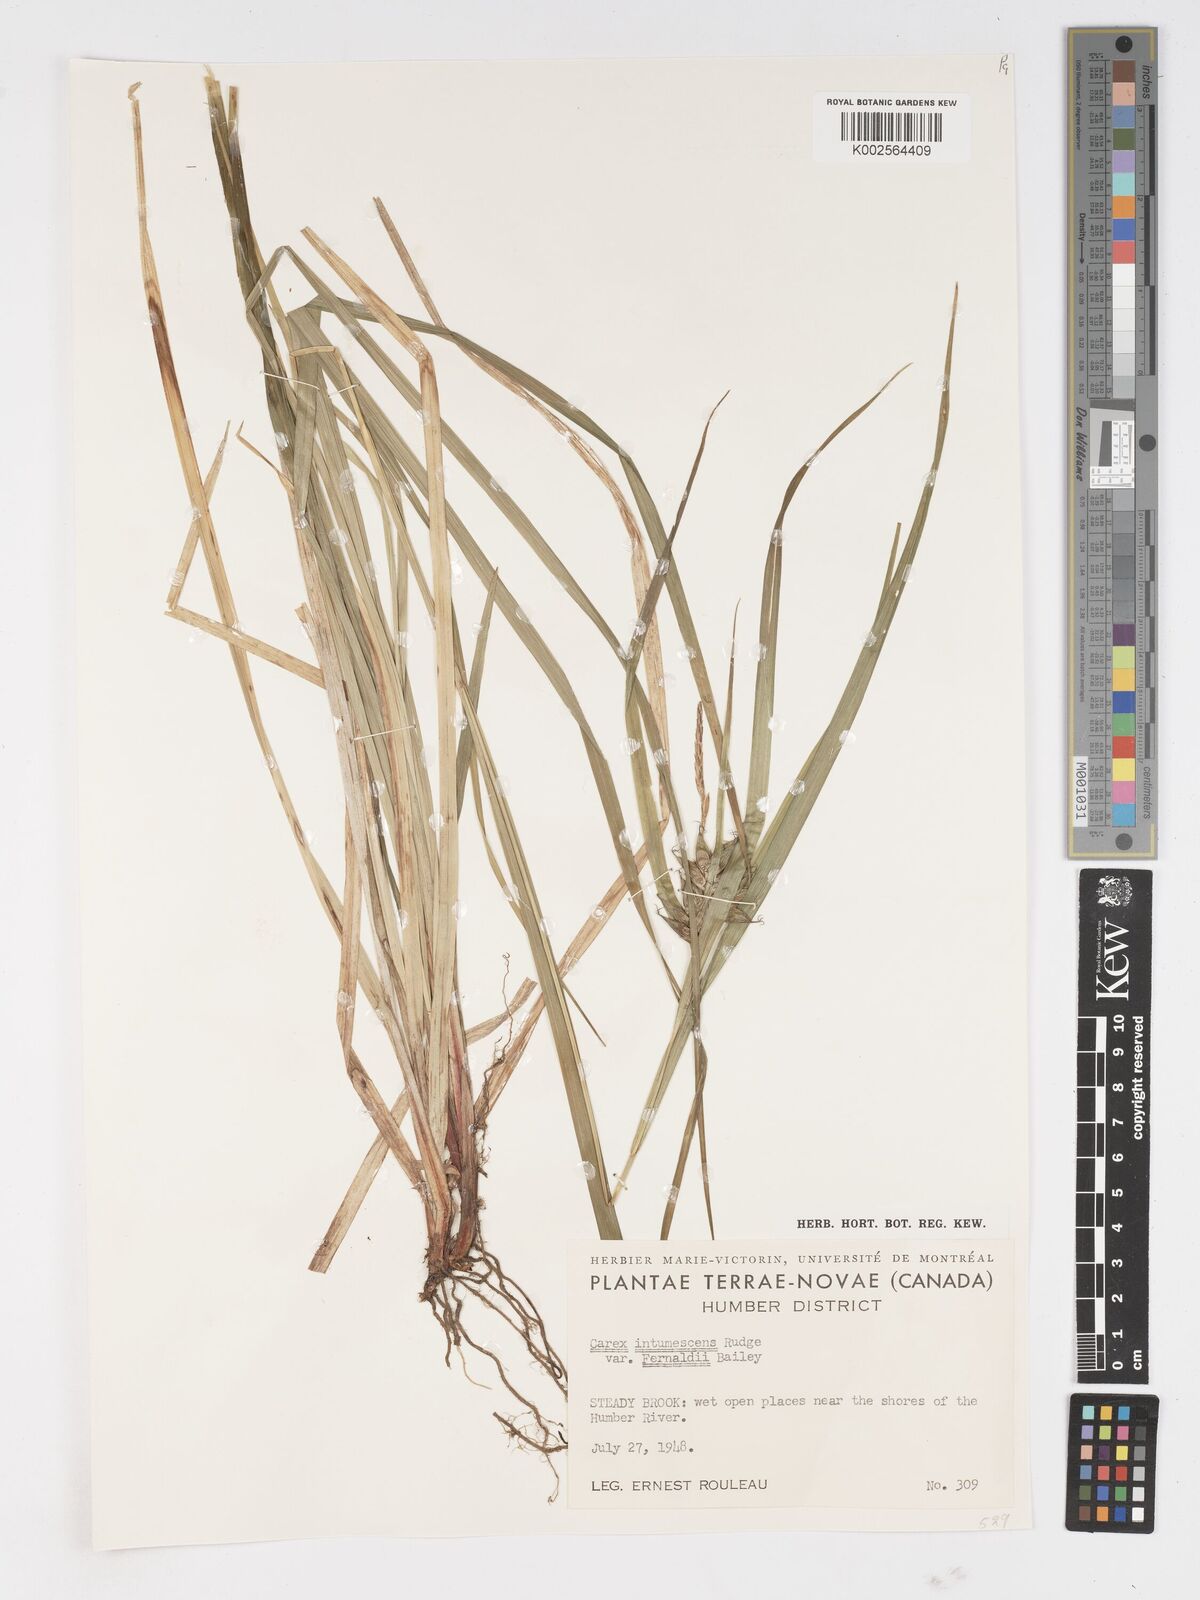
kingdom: Plantae
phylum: Tracheophyta
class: Liliopsida
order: Poales
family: Cyperaceae
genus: Carex
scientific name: Carex intumescens
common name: Greater bladder sedge
